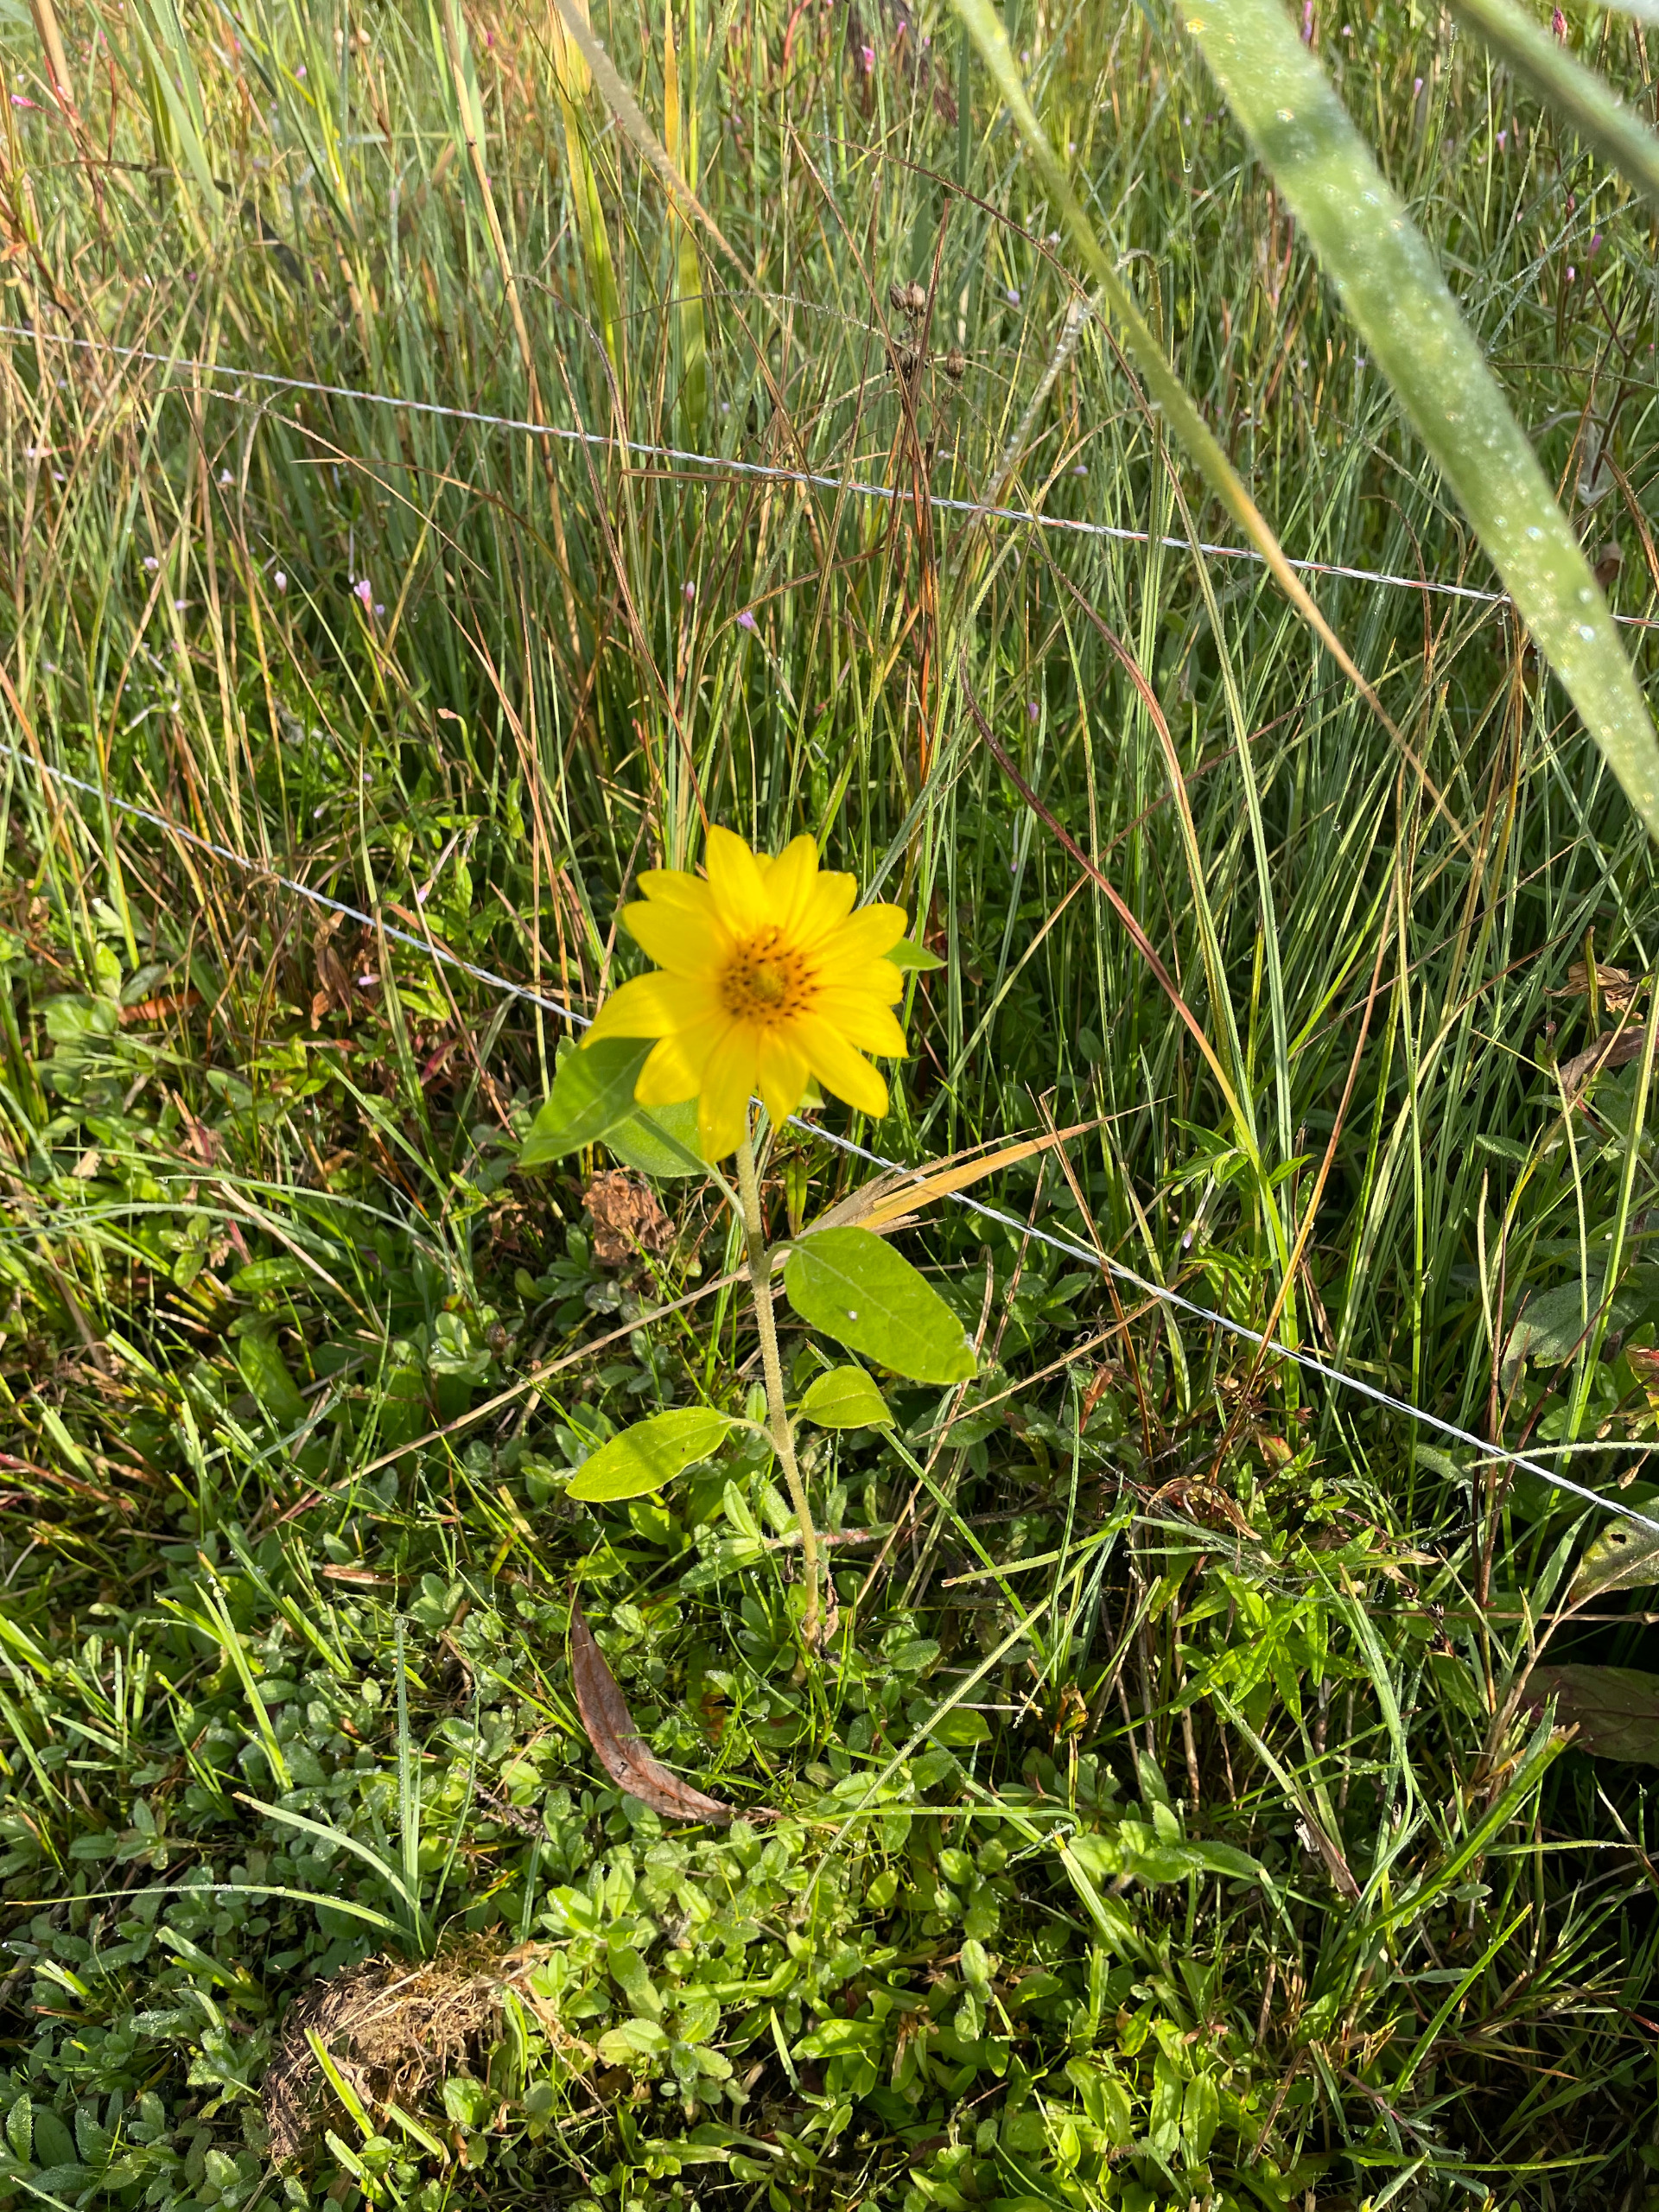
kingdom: Plantae
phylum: Tracheophyta
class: Magnoliopsida
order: Asterales
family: Asteraceae
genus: Helianthus
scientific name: Helianthus
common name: Solsikkeslægten
